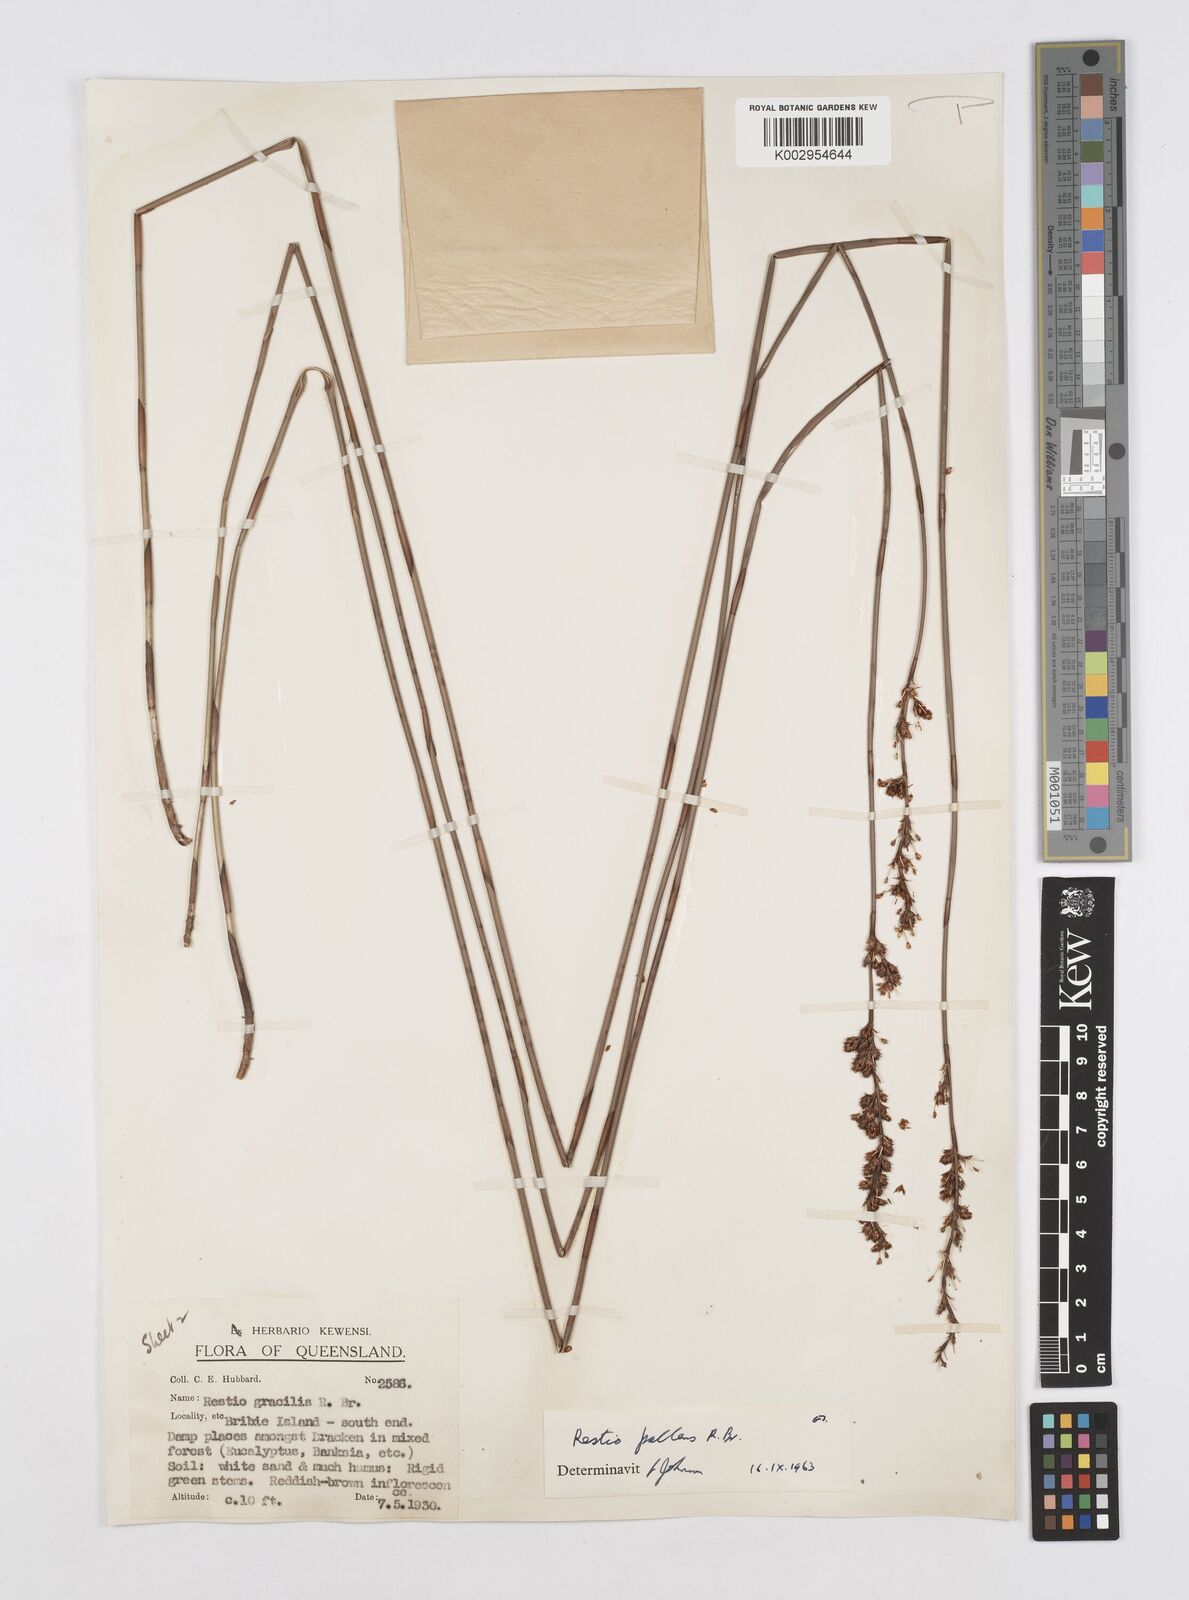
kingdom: Plantae
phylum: Tracheophyta
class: Liliopsida
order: Poales
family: Restionaceae
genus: Baloskion
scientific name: Baloskion pallens
